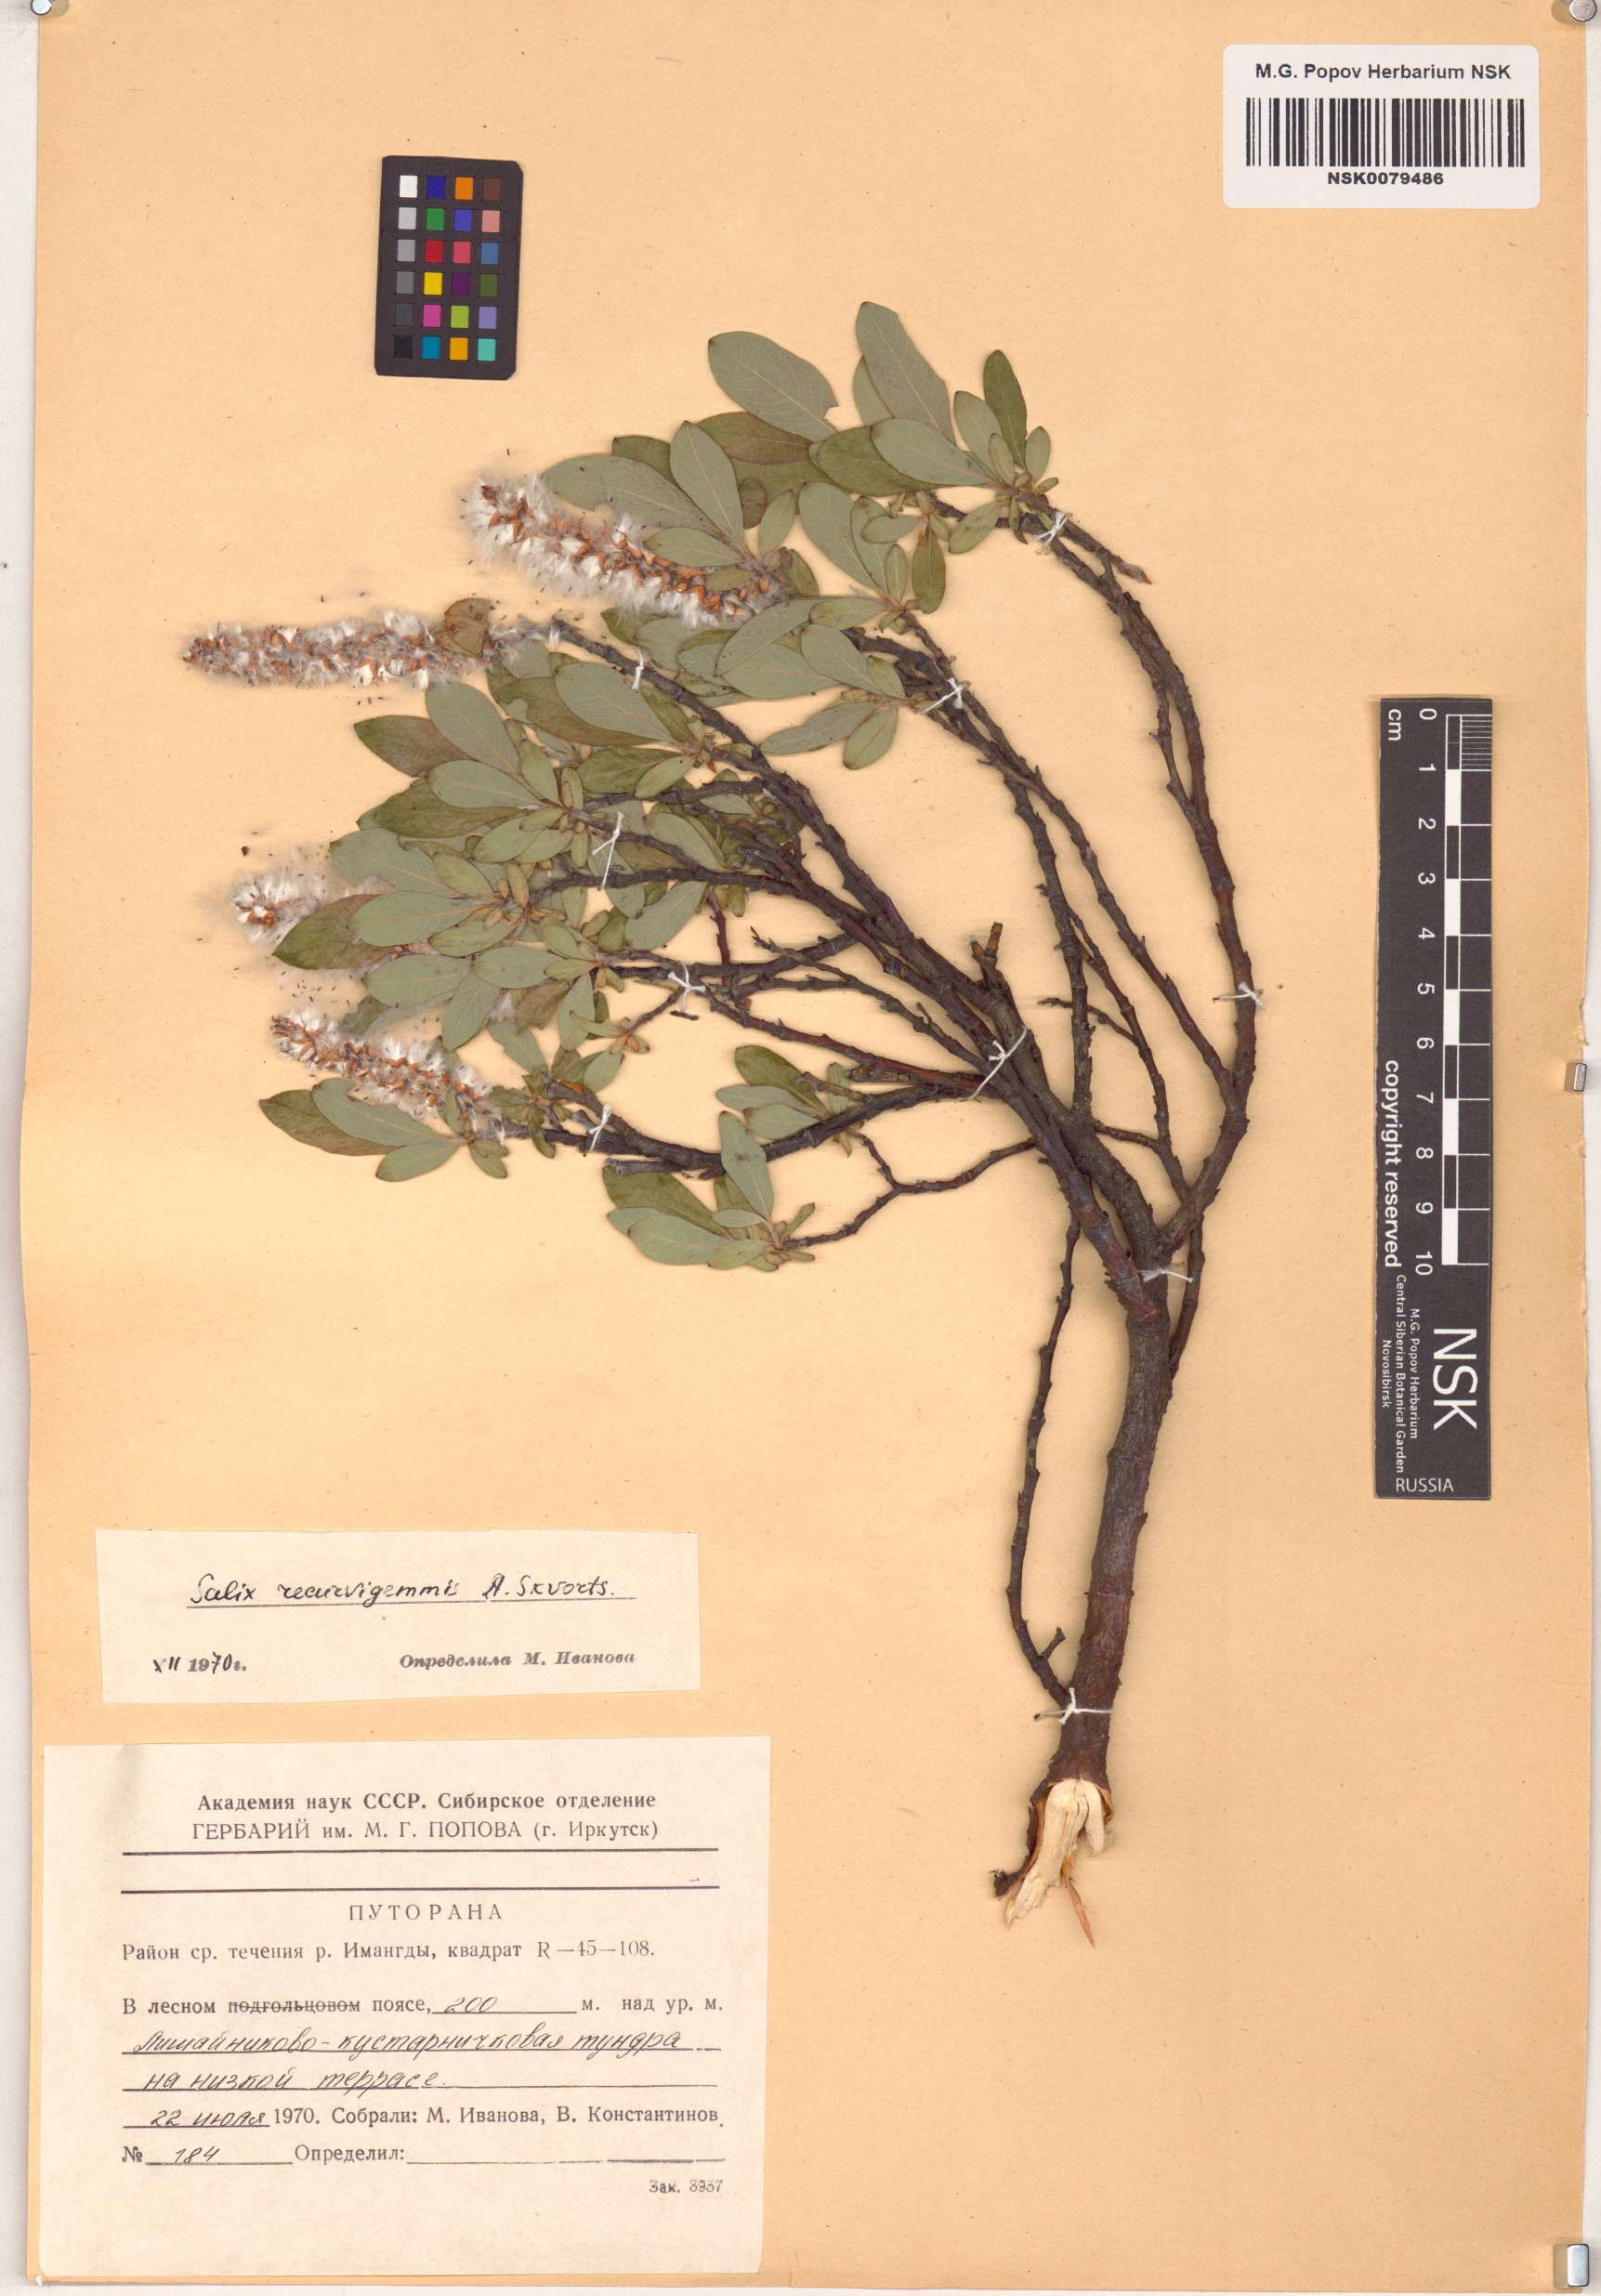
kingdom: Plantae
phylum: Tracheophyta
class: Magnoliopsida
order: Malpighiales
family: Salicaceae
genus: Salix
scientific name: Salix recurvigemmata
